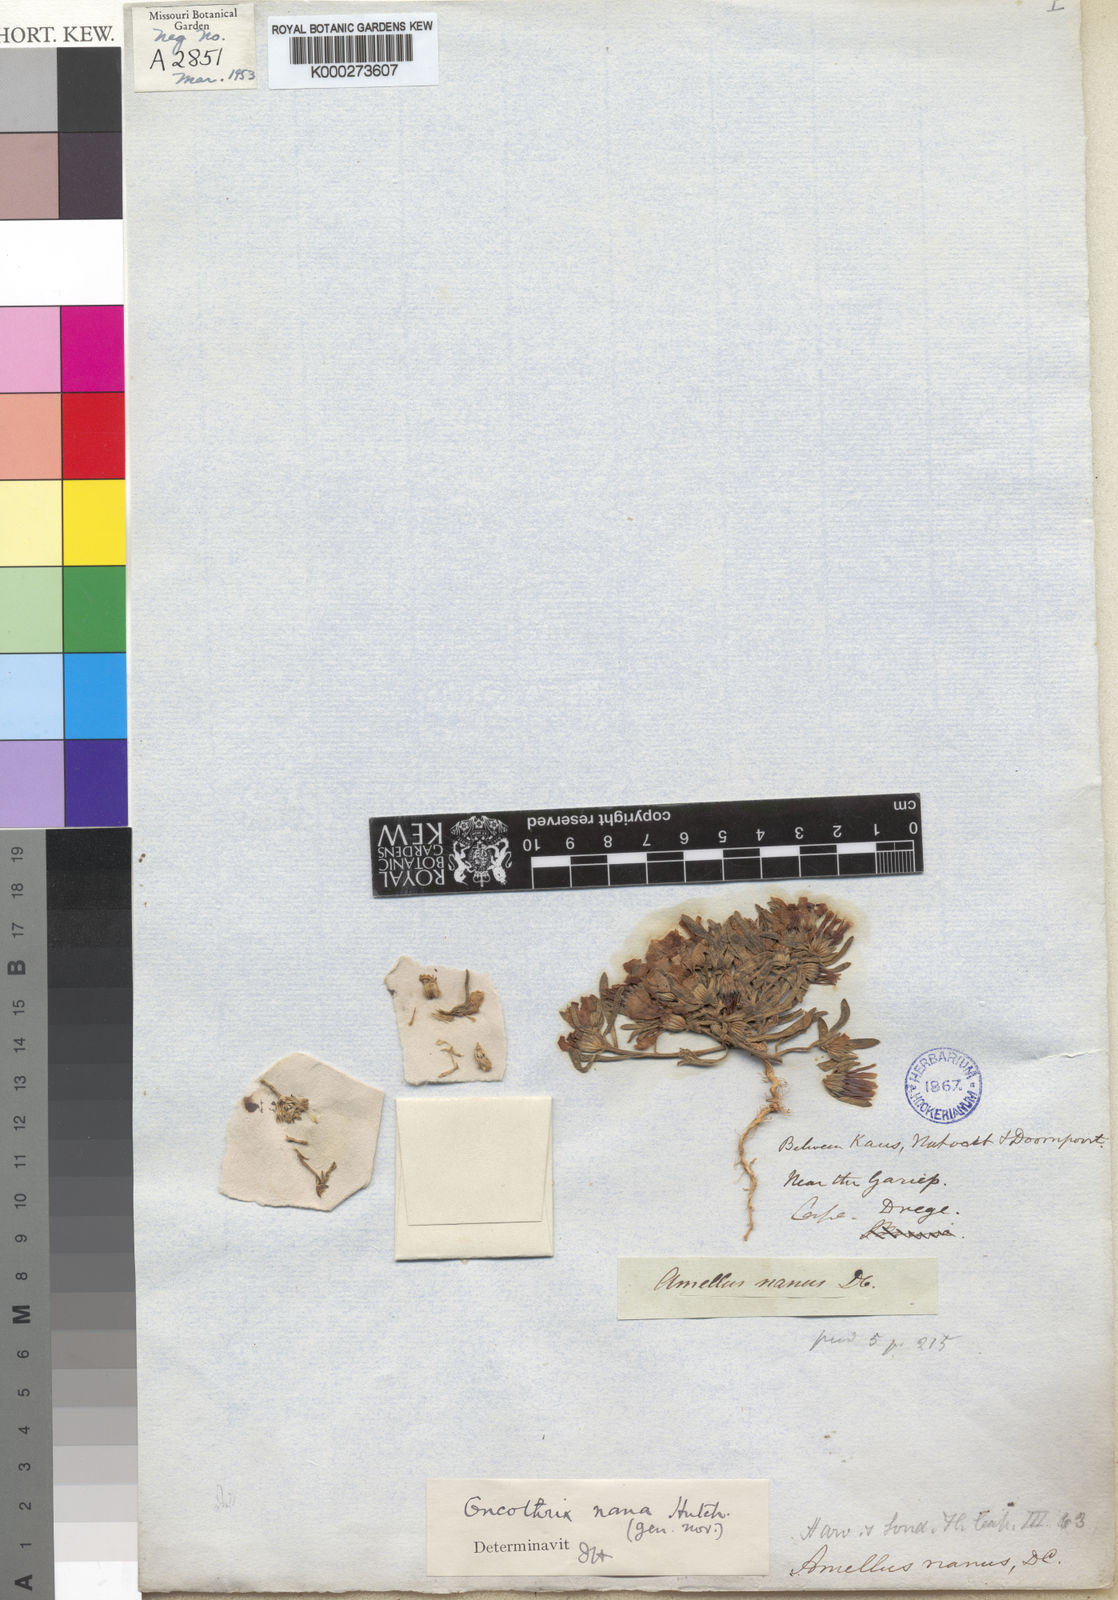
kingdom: Plantae
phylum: Tracheophyta
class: Magnoliopsida
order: Asterales
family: Asteraceae
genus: Amellus
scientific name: Amellus nanus
